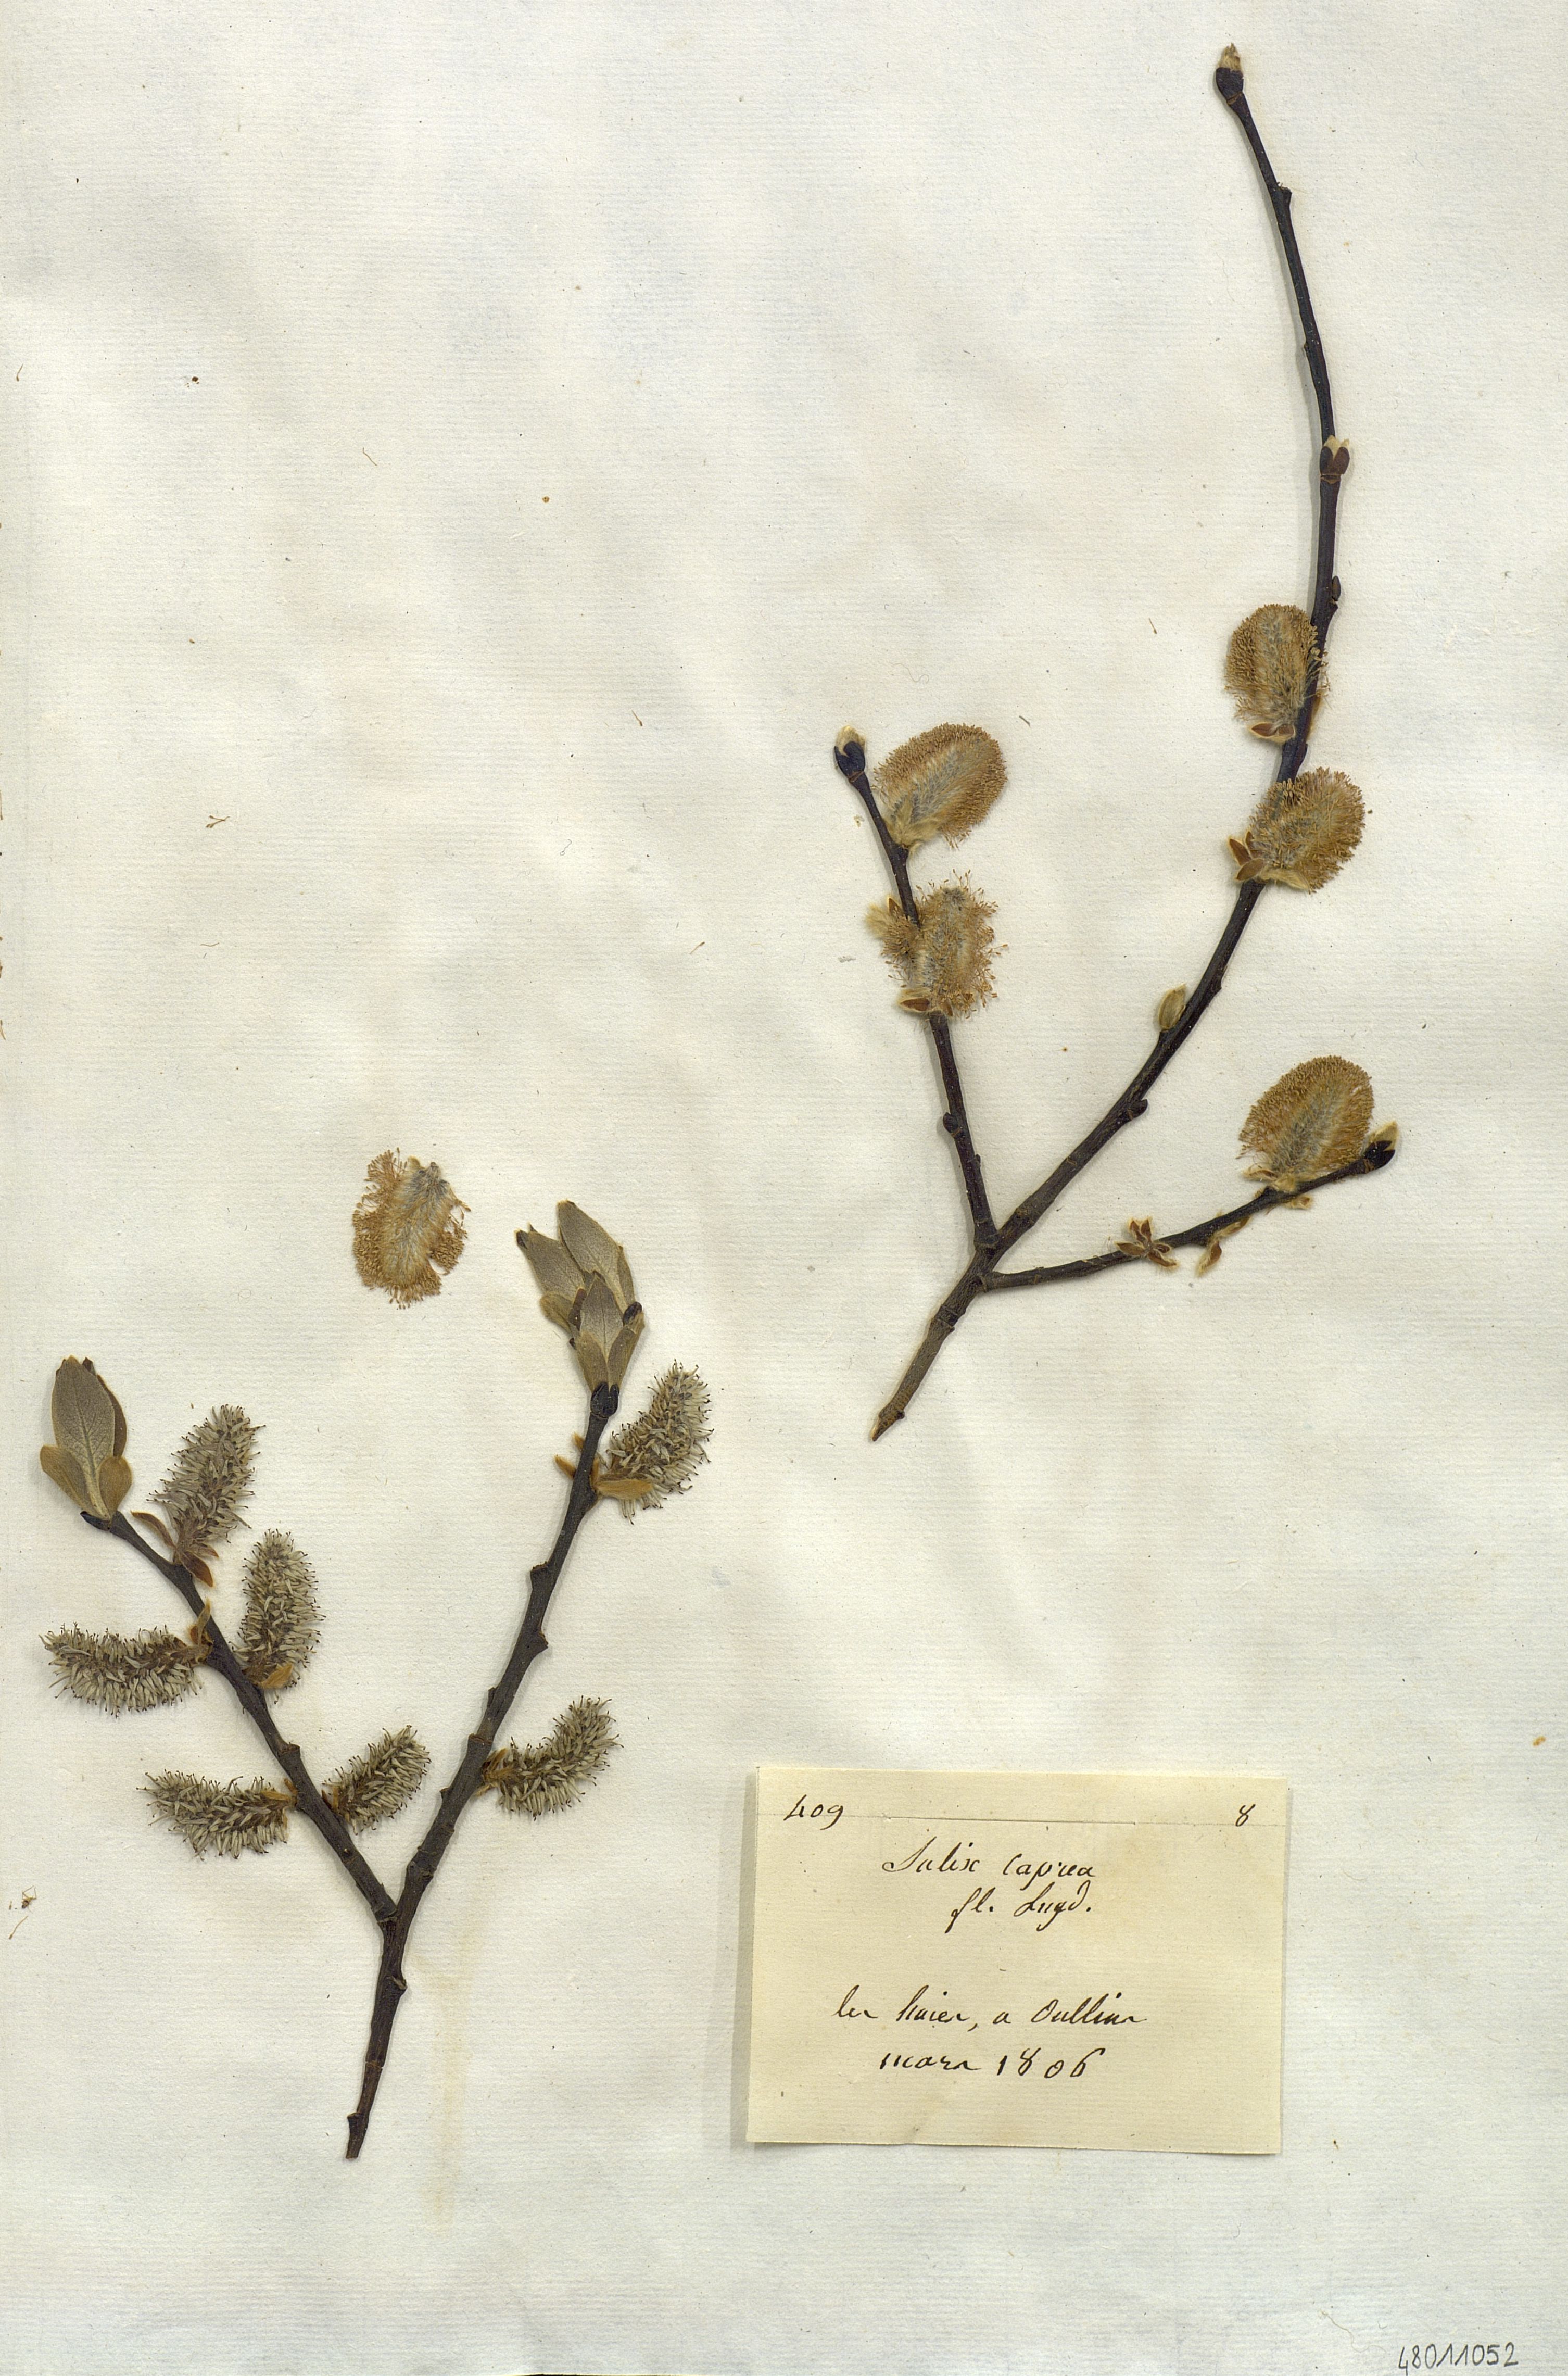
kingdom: Plantae
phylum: Tracheophyta
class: Magnoliopsida
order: Malpighiales
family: Salicaceae
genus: Salix
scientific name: Salix caprea
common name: Goat willow
